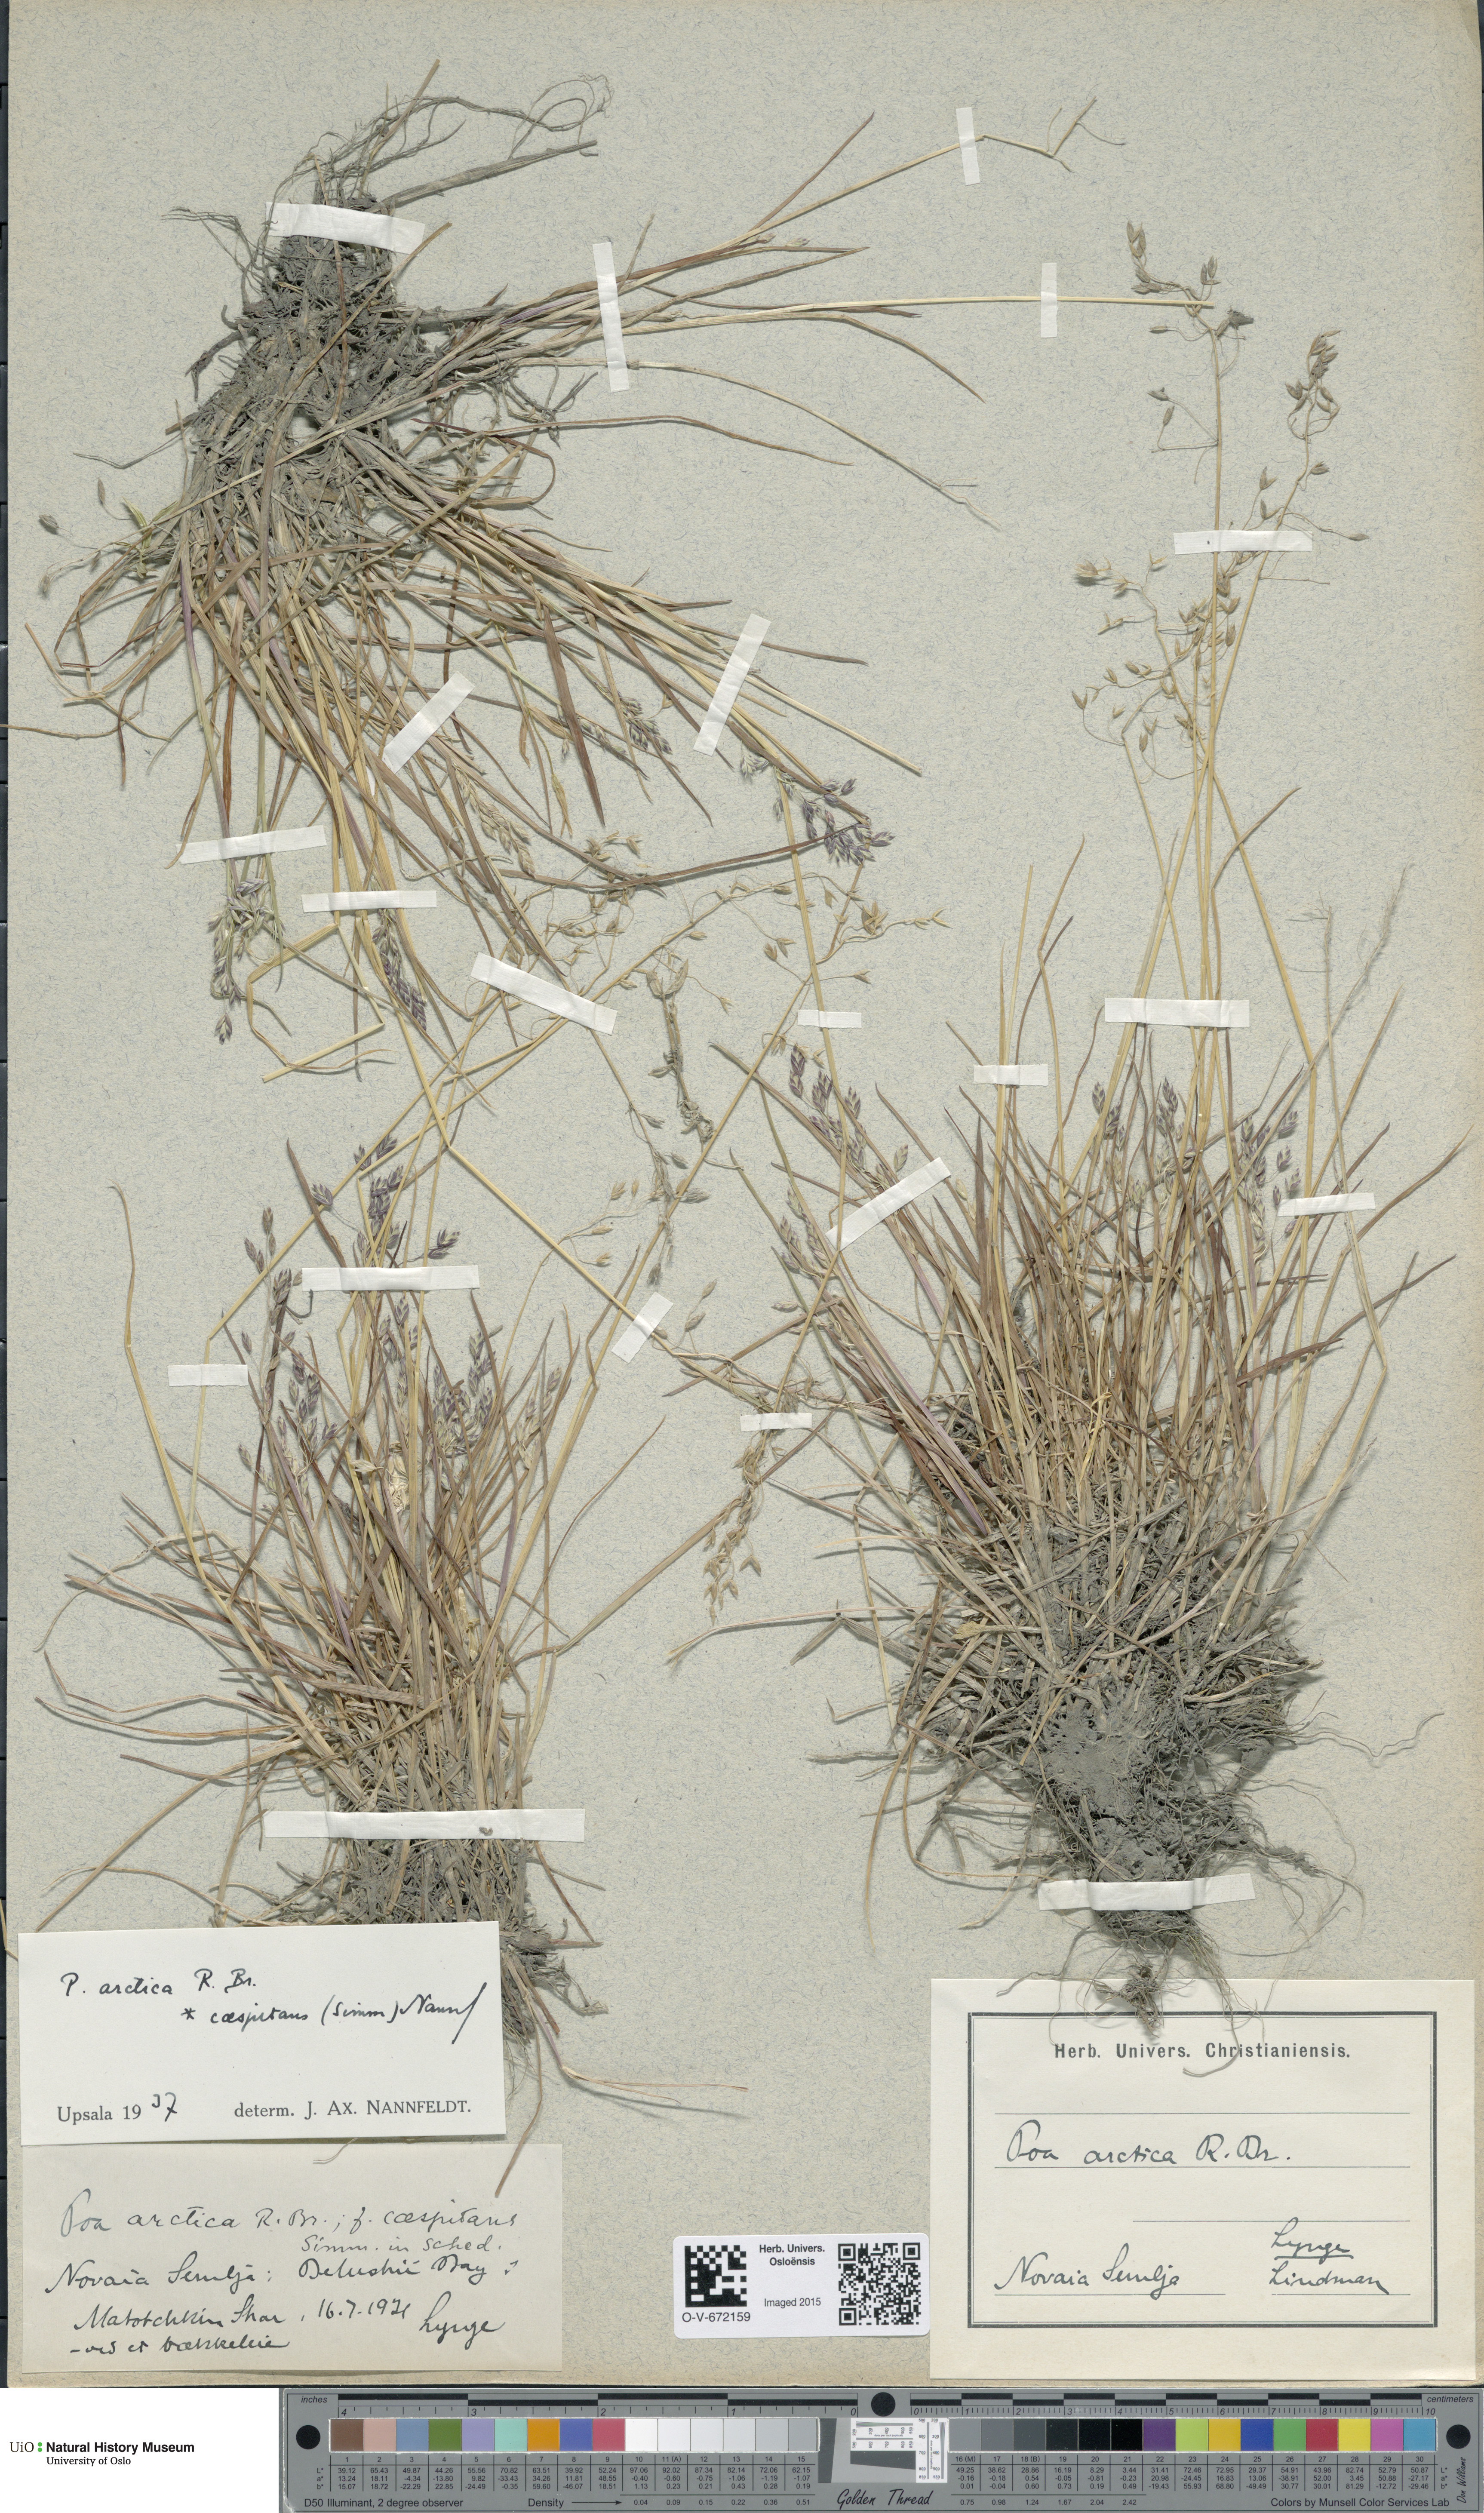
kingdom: Plantae
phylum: Tracheophyta
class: Liliopsida
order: Poales
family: Poaceae
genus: Poa
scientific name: Poa tolmatchewii
